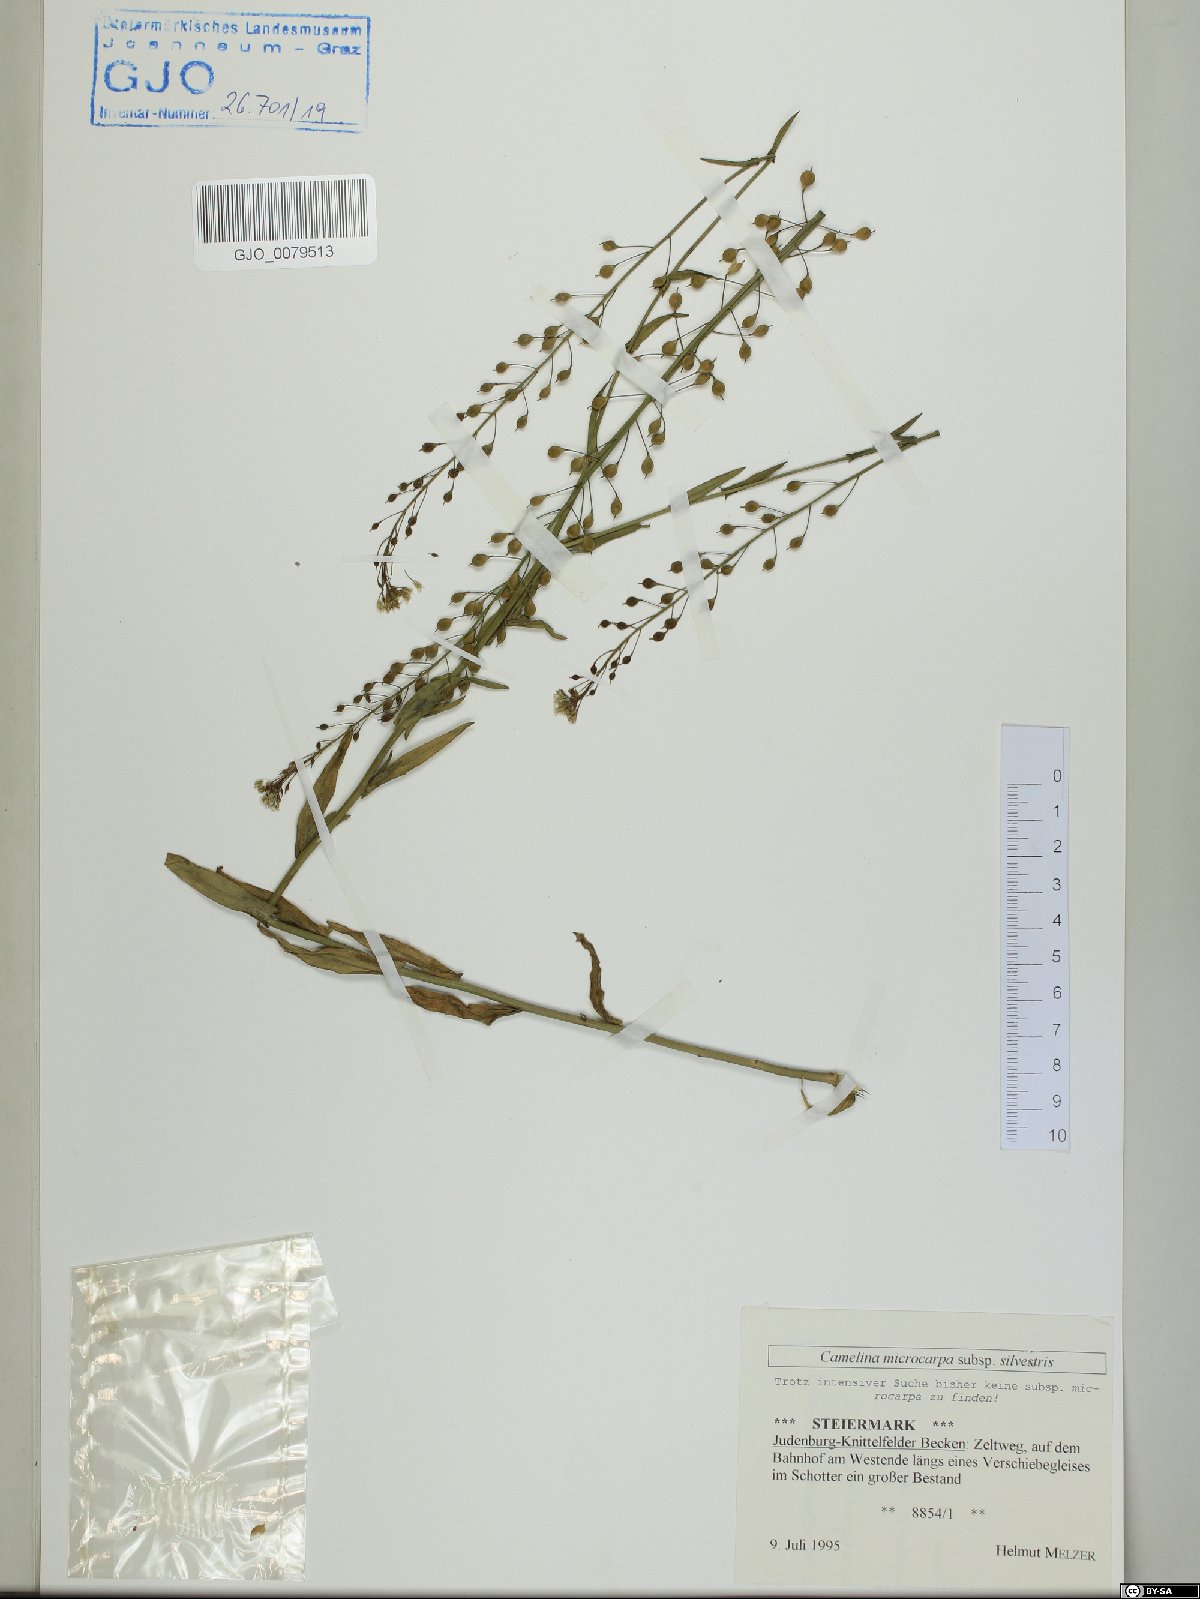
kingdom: Plantae
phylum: Tracheophyta
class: Magnoliopsida
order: Brassicales
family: Brassicaceae
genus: Camelina
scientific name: Camelina microcarpa
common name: Lesser gold-of-pleasure
